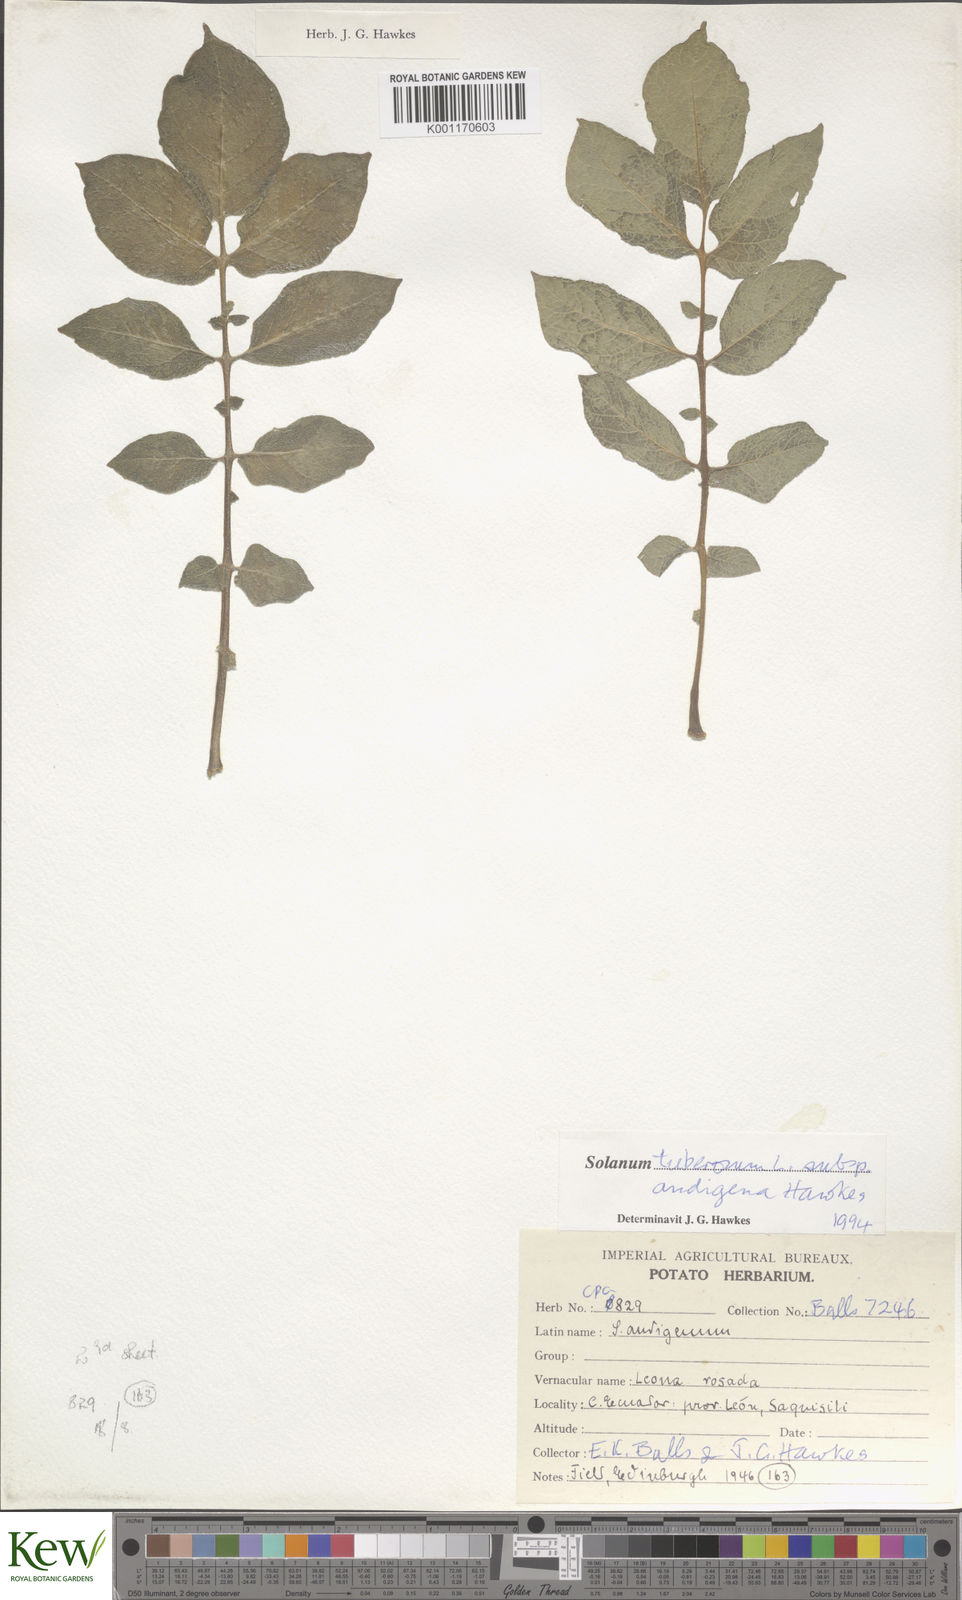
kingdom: Plantae
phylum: Tracheophyta
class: Magnoliopsida
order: Solanales
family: Solanaceae
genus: Solanum
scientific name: Solanum tuberosum
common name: Potato
